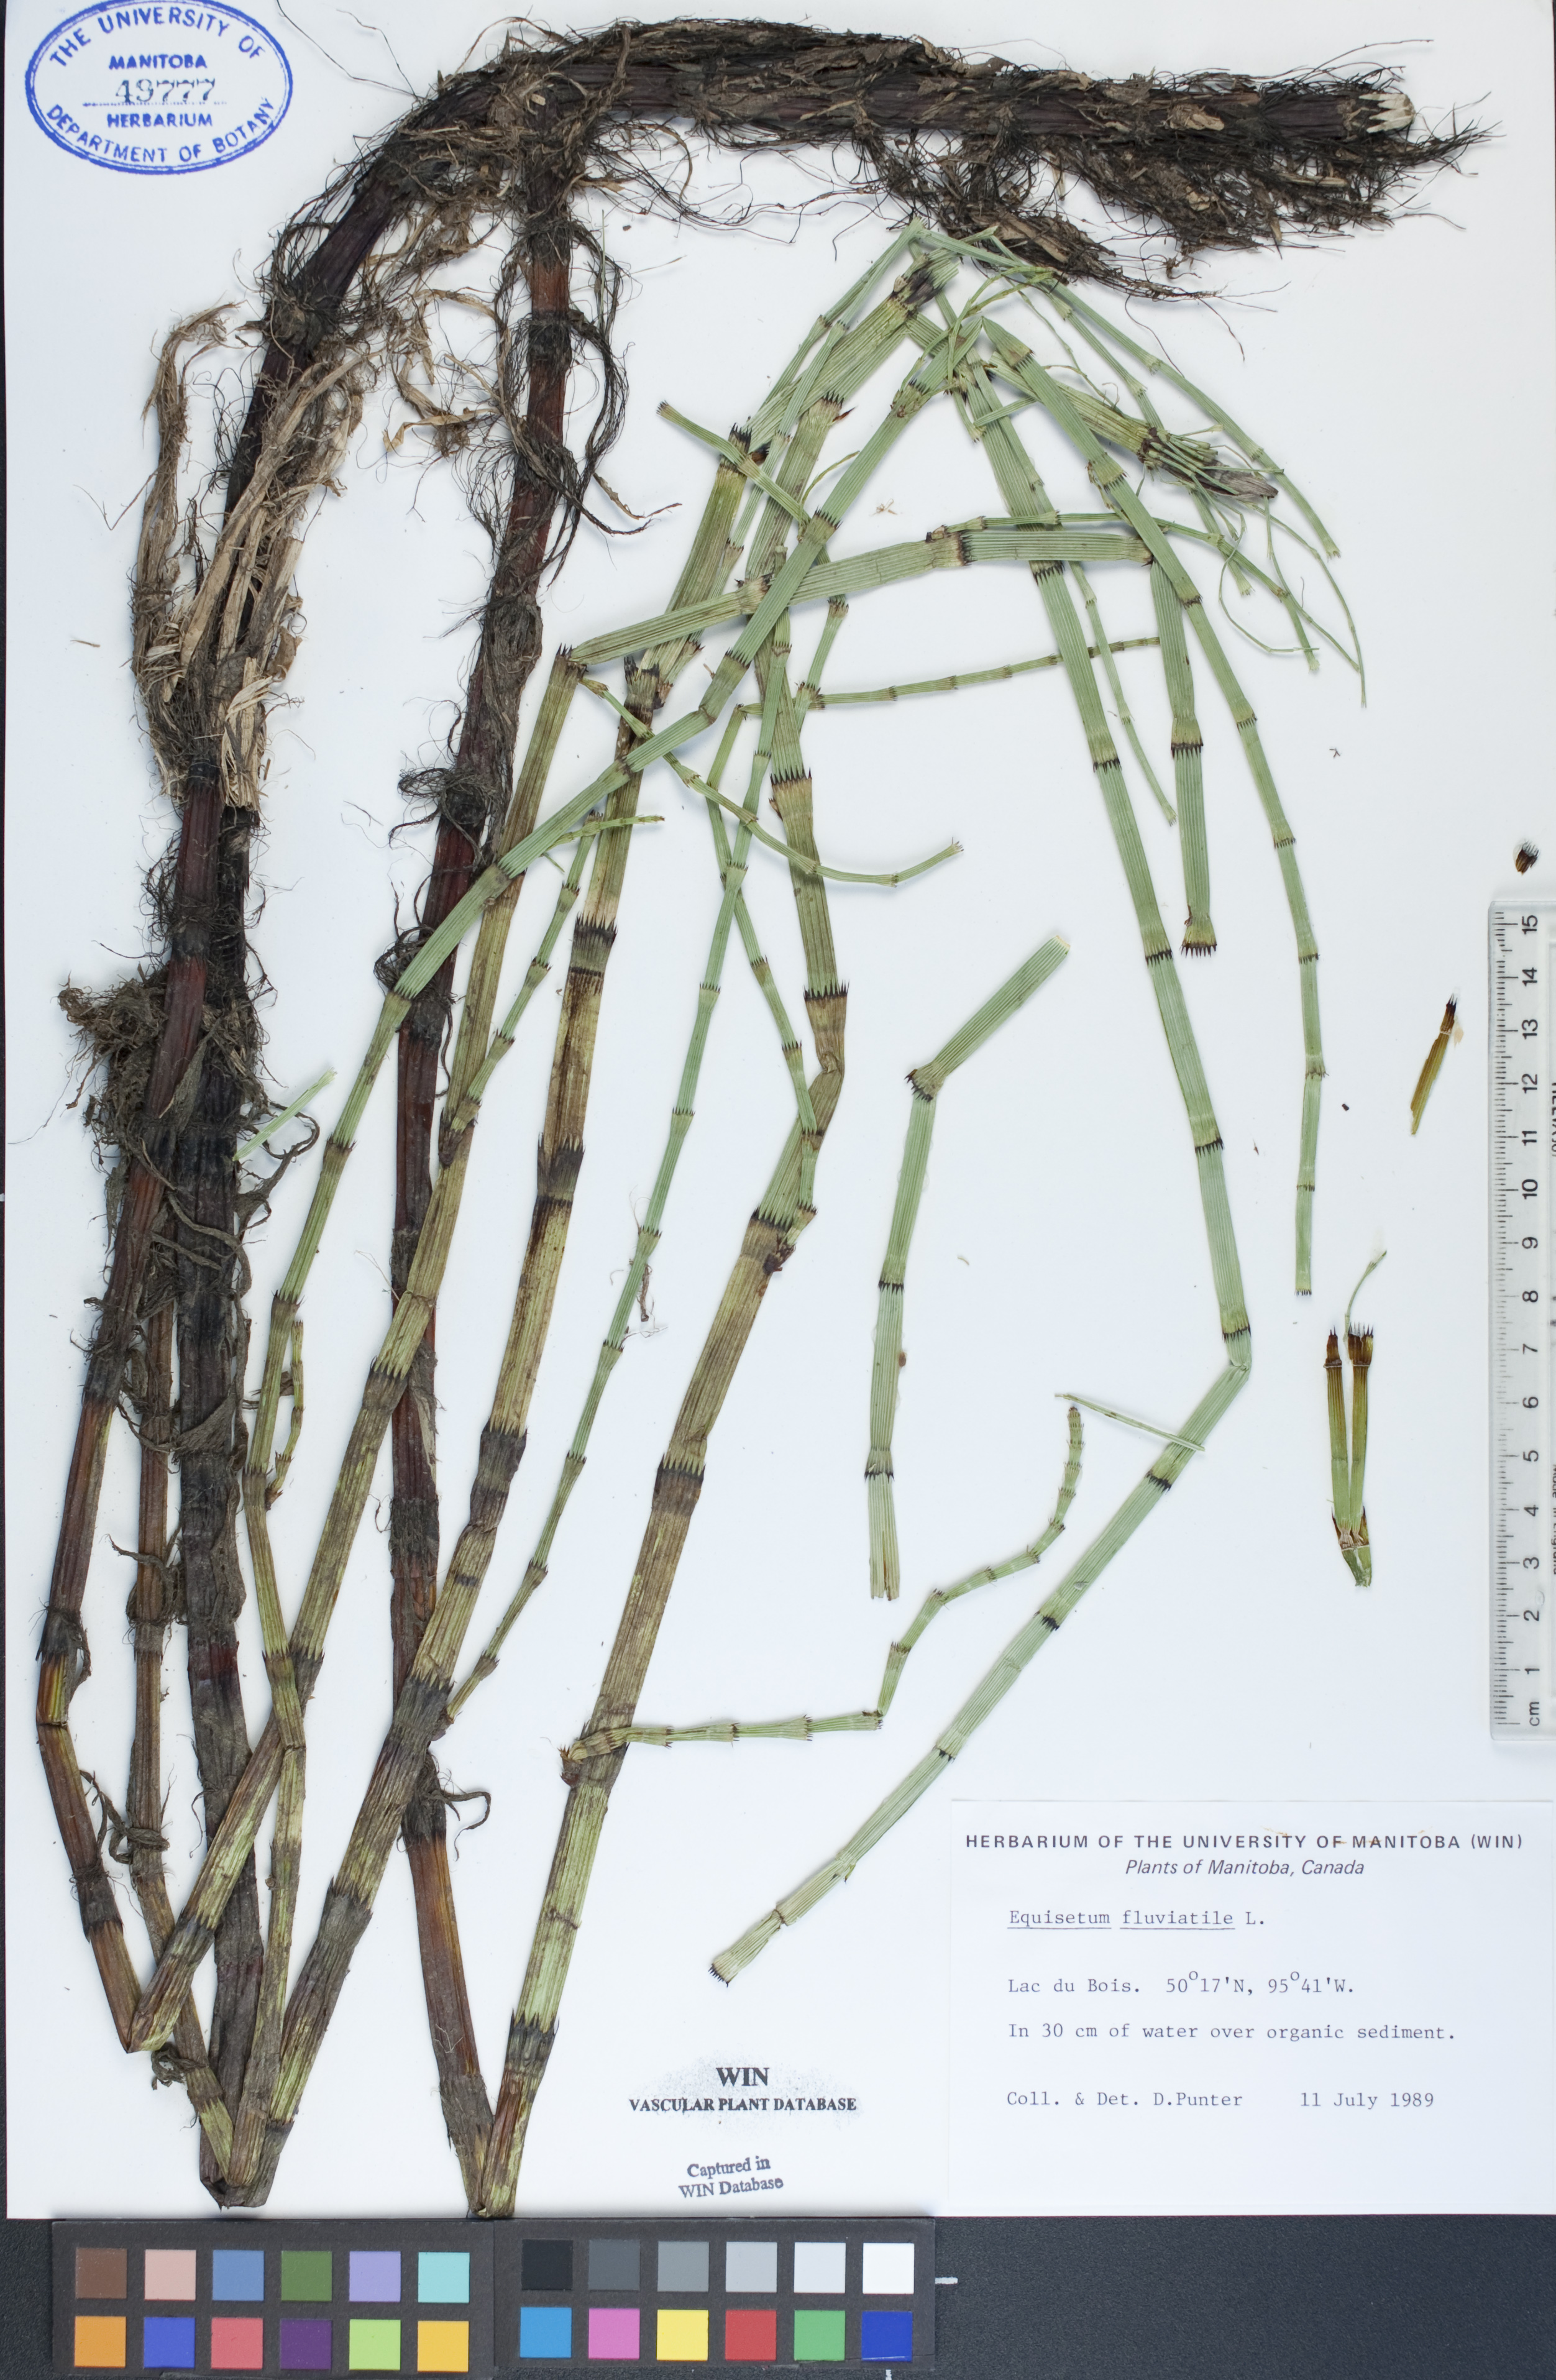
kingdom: Plantae
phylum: Tracheophyta
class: Polypodiopsida
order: Equisetales
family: Equisetaceae
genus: Equisetum
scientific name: Equisetum fluviatile
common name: Water horsetail
